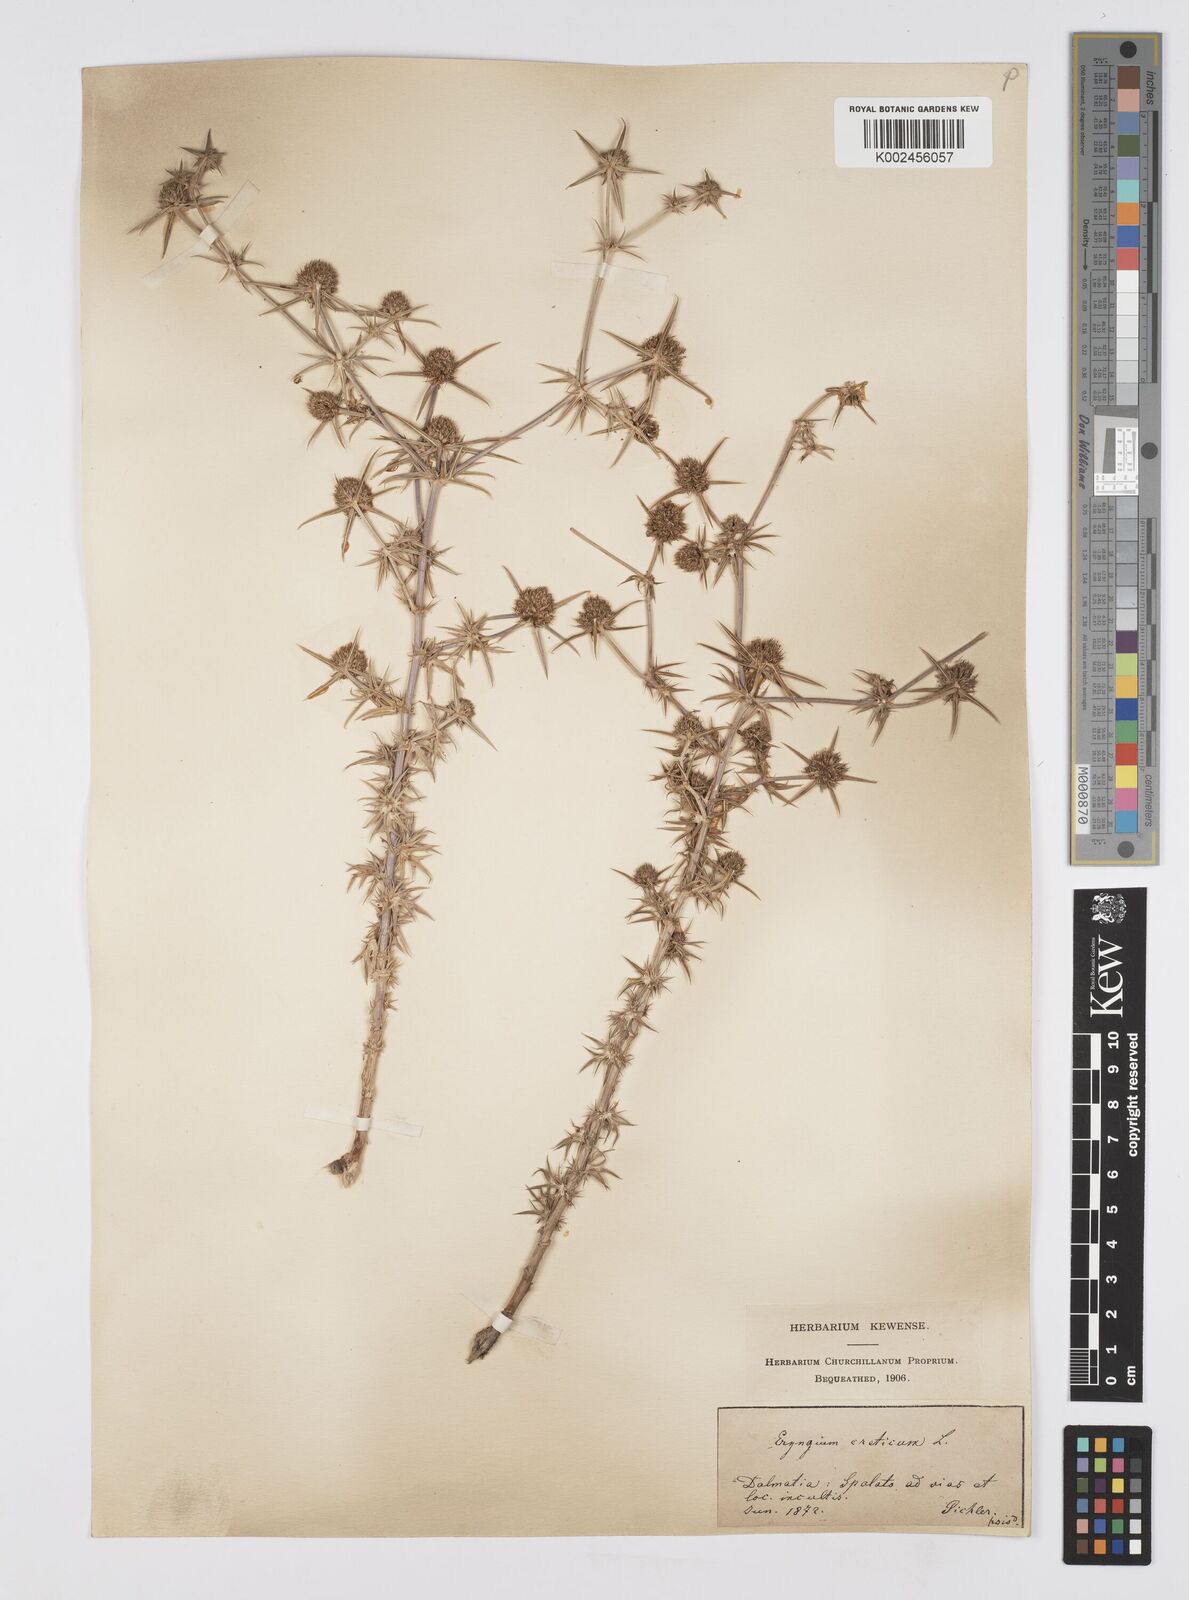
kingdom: Plantae
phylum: Tracheophyta
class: Magnoliopsida
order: Apiales
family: Apiaceae
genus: Eryngium
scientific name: Eryngium creticum
